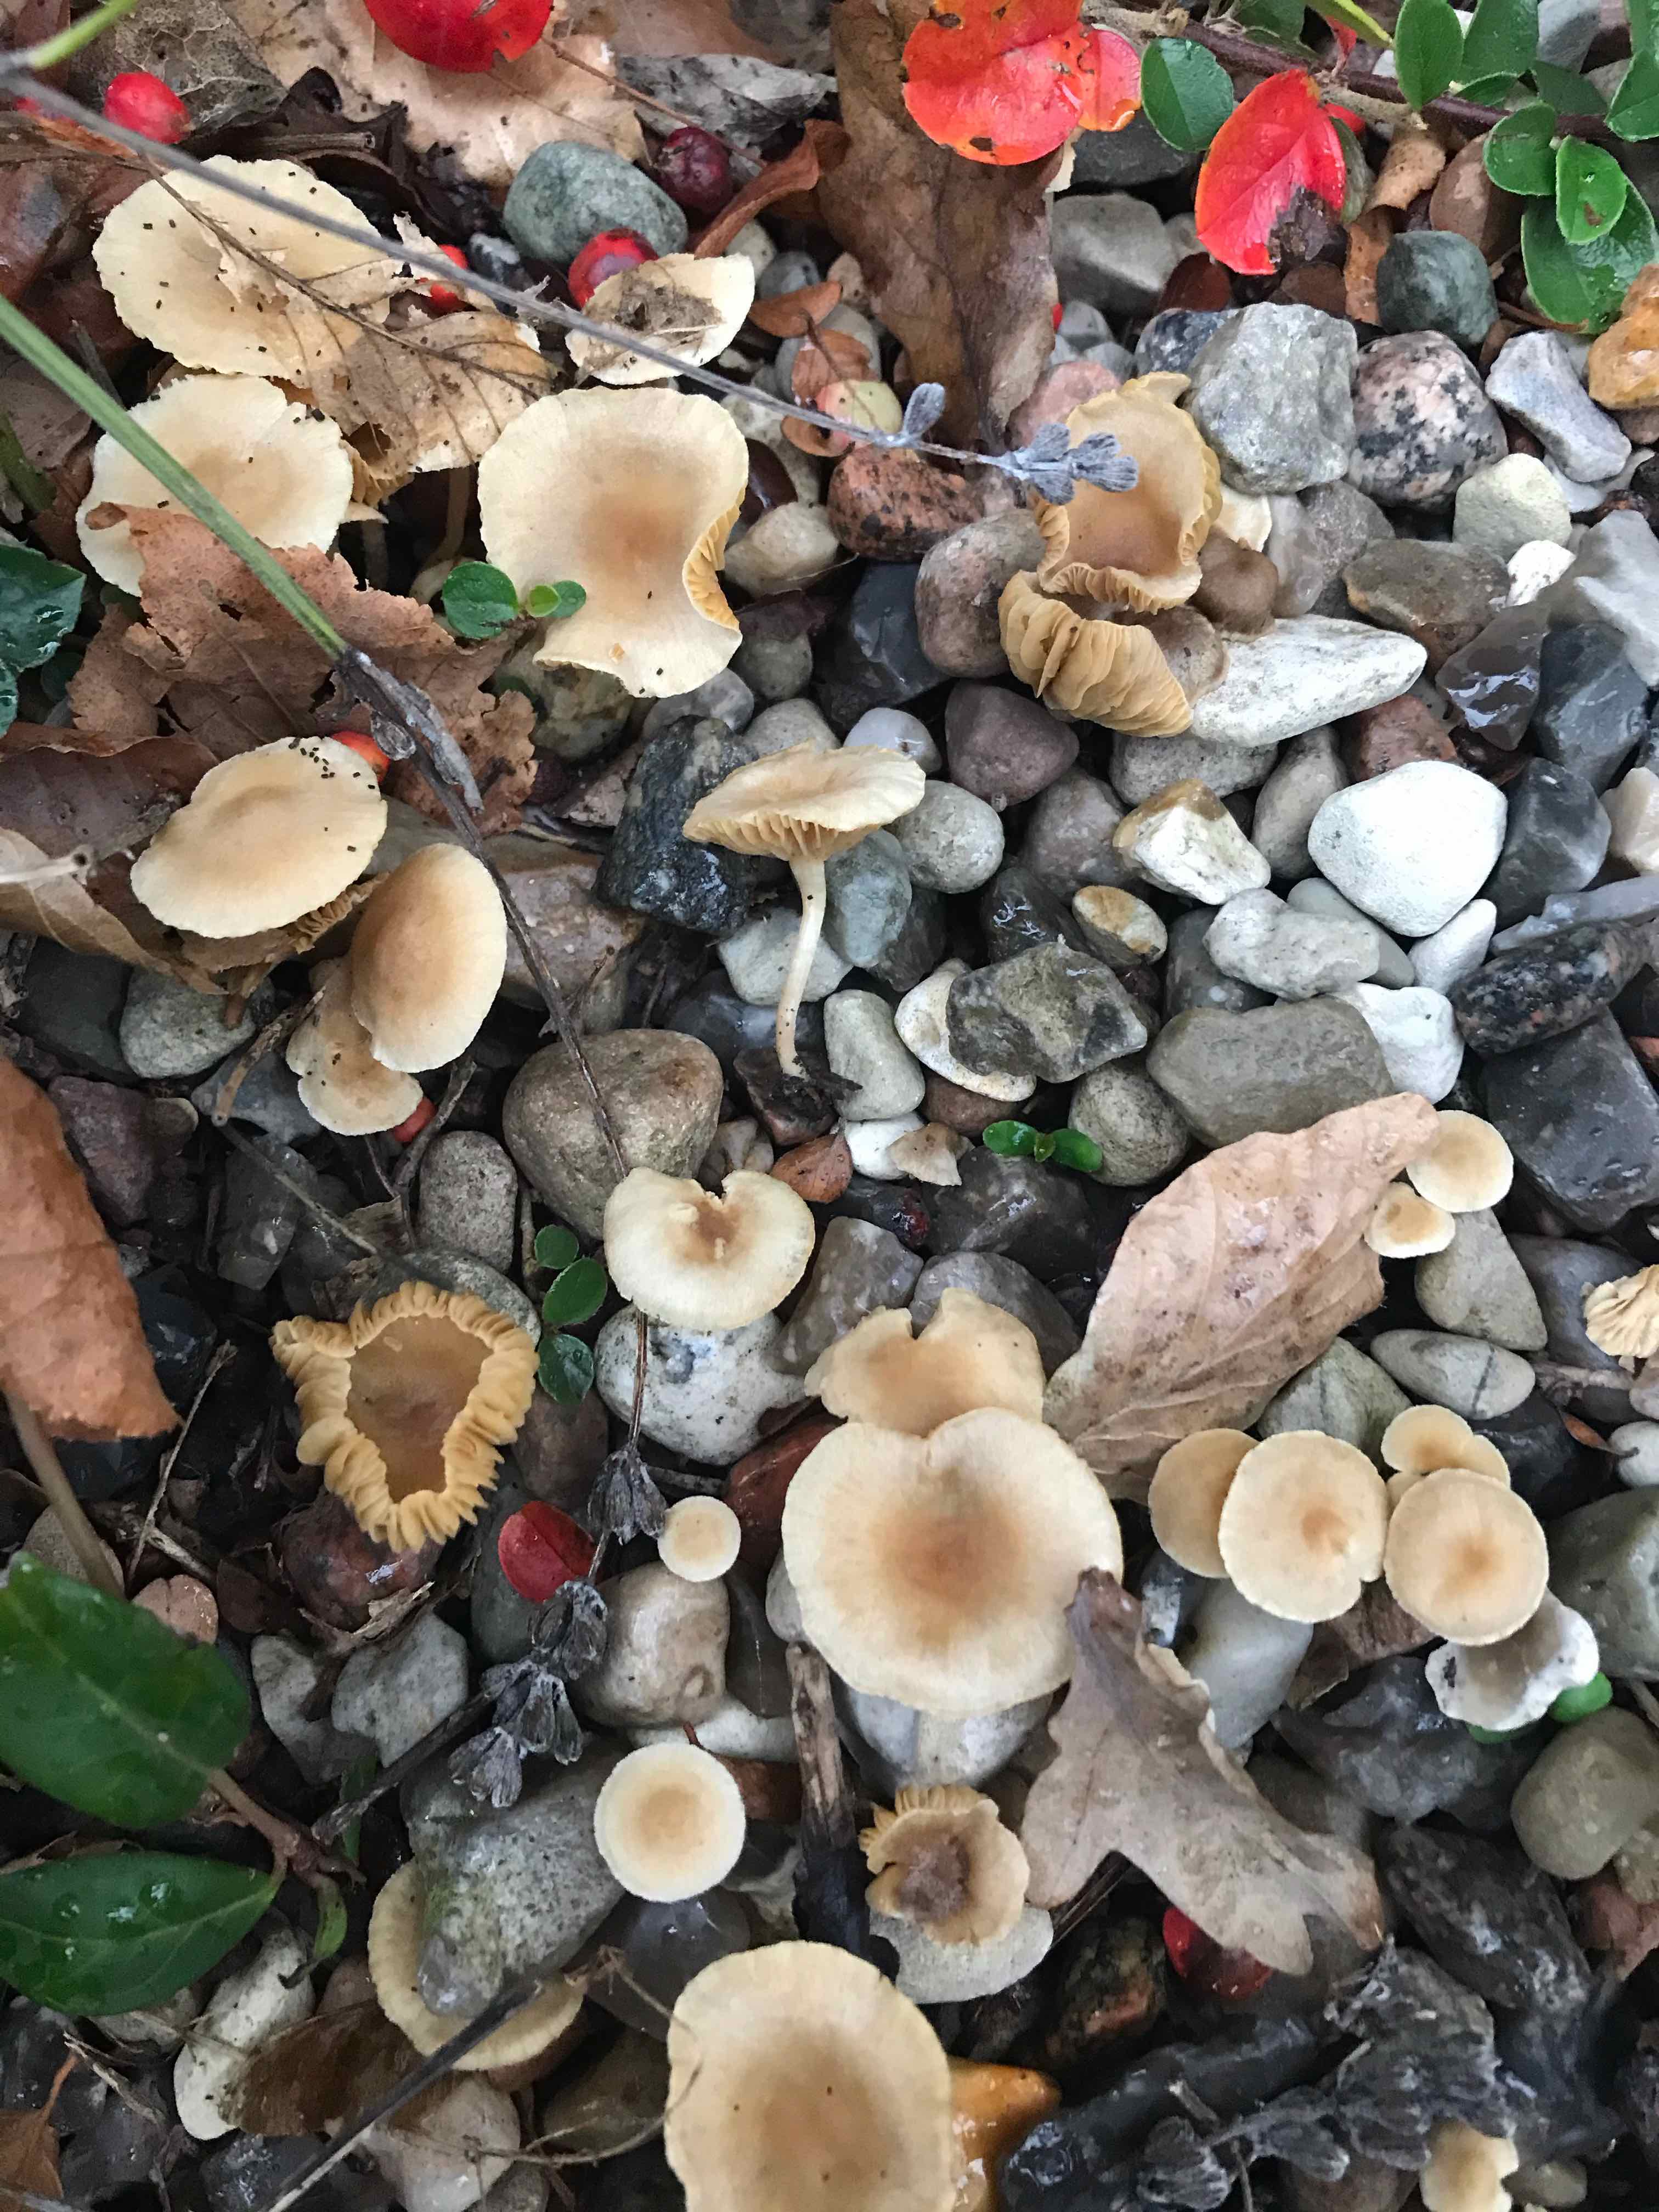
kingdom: Fungi
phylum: Basidiomycota
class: Agaricomycetes
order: Agaricales
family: Tubariaceae
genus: Tubaria
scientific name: Tubaria dispersa
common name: tjørne-fnughat
